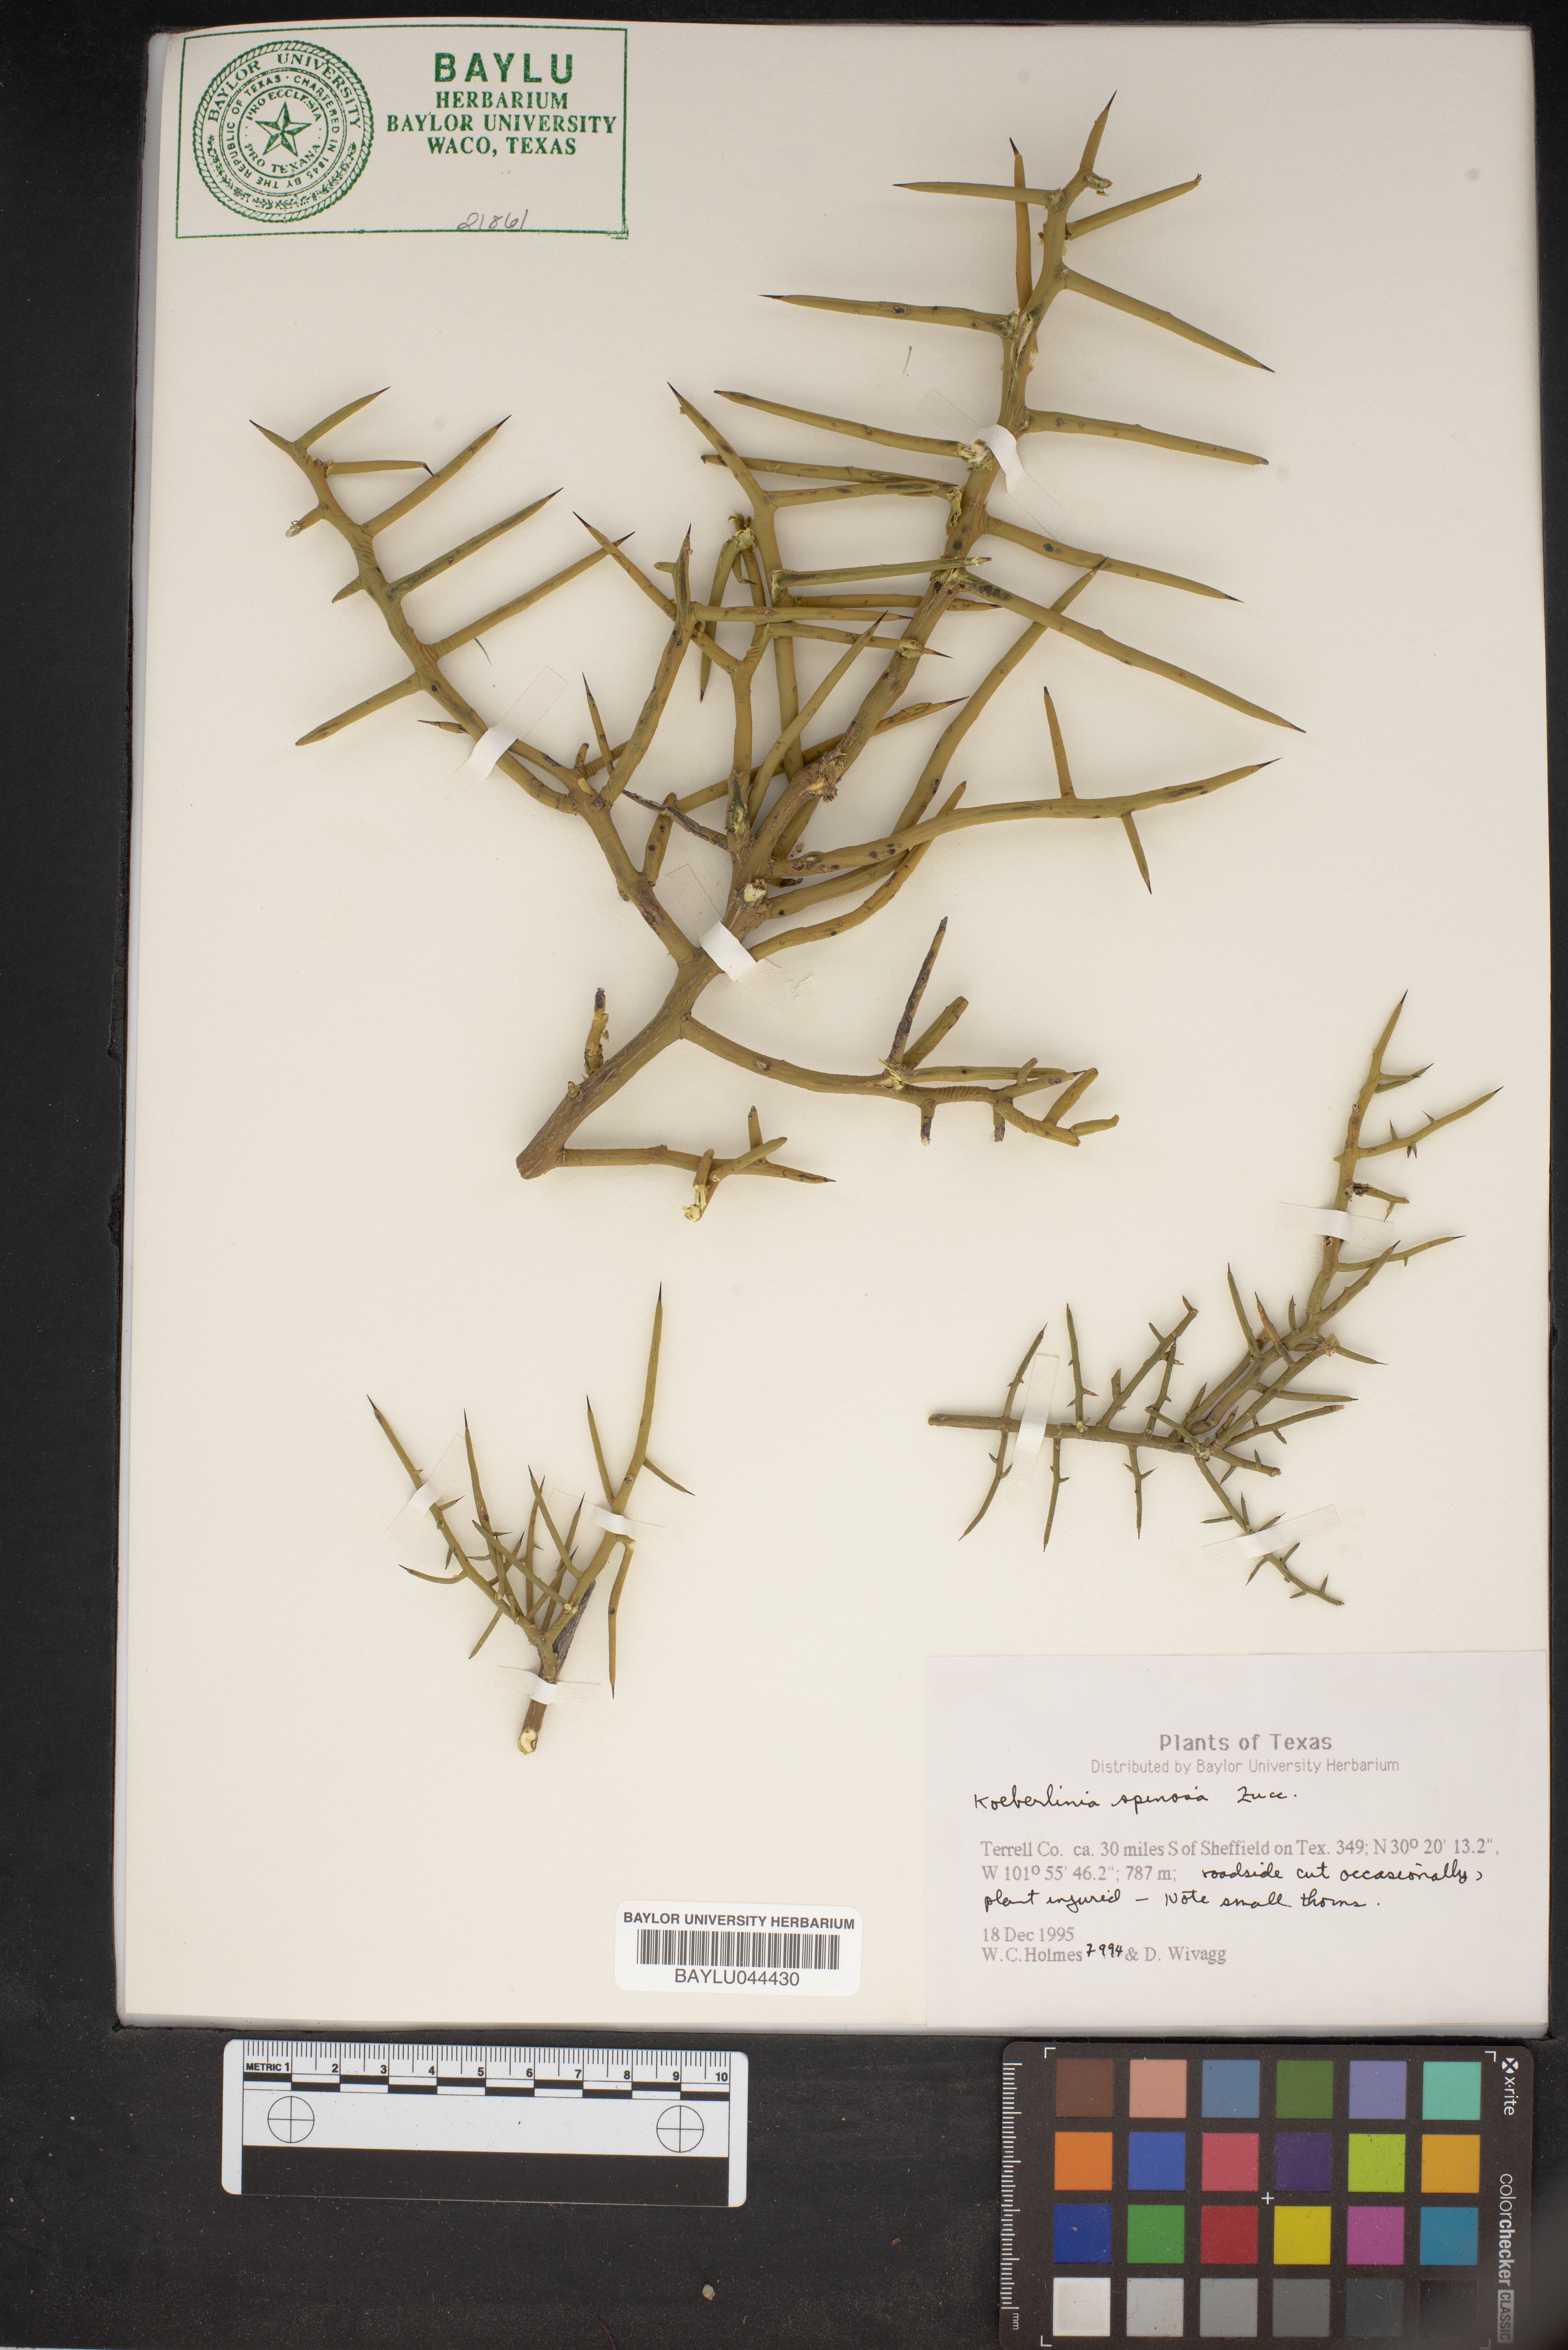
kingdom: Plantae
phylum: Tracheophyta
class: Magnoliopsida
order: Brassicales
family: Koeberliniaceae
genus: Koeberlinia
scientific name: Koeberlinia spinosa
